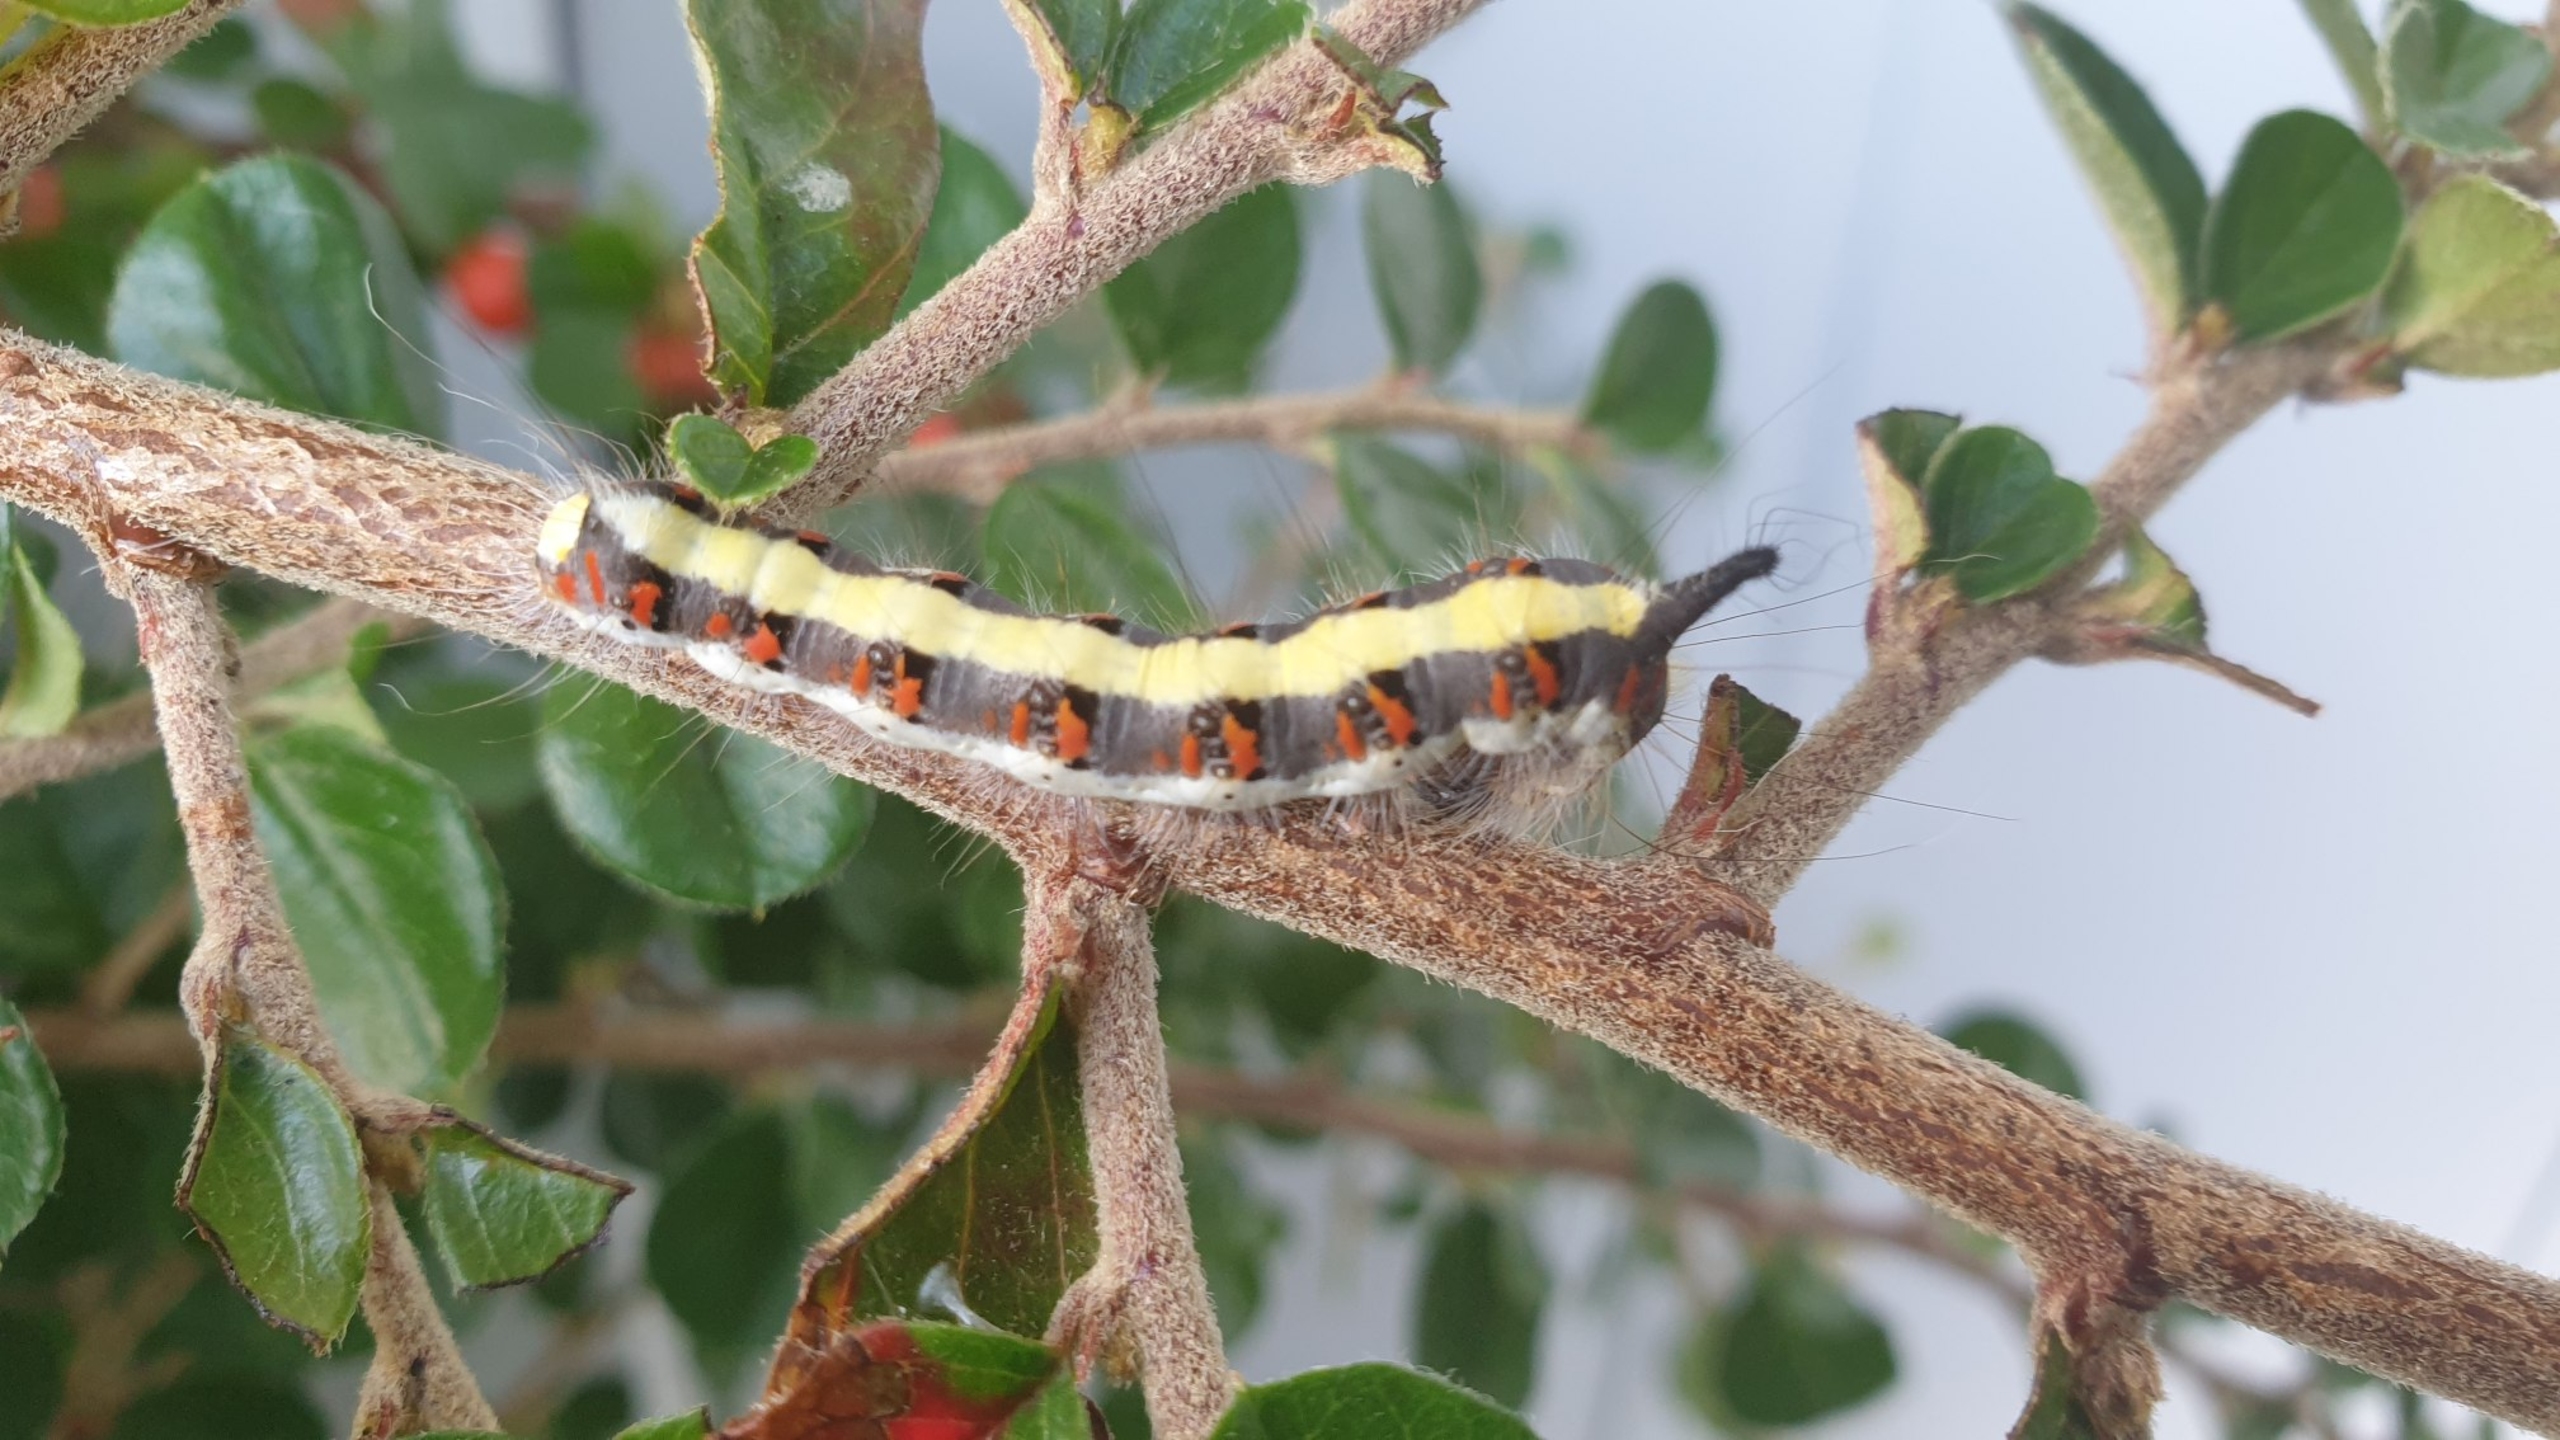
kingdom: Animalia
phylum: Arthropoda
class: Insecta
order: Lepidoptera
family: Noctuidae
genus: Acronicta
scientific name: Acronicta psi
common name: Psi-ugle
